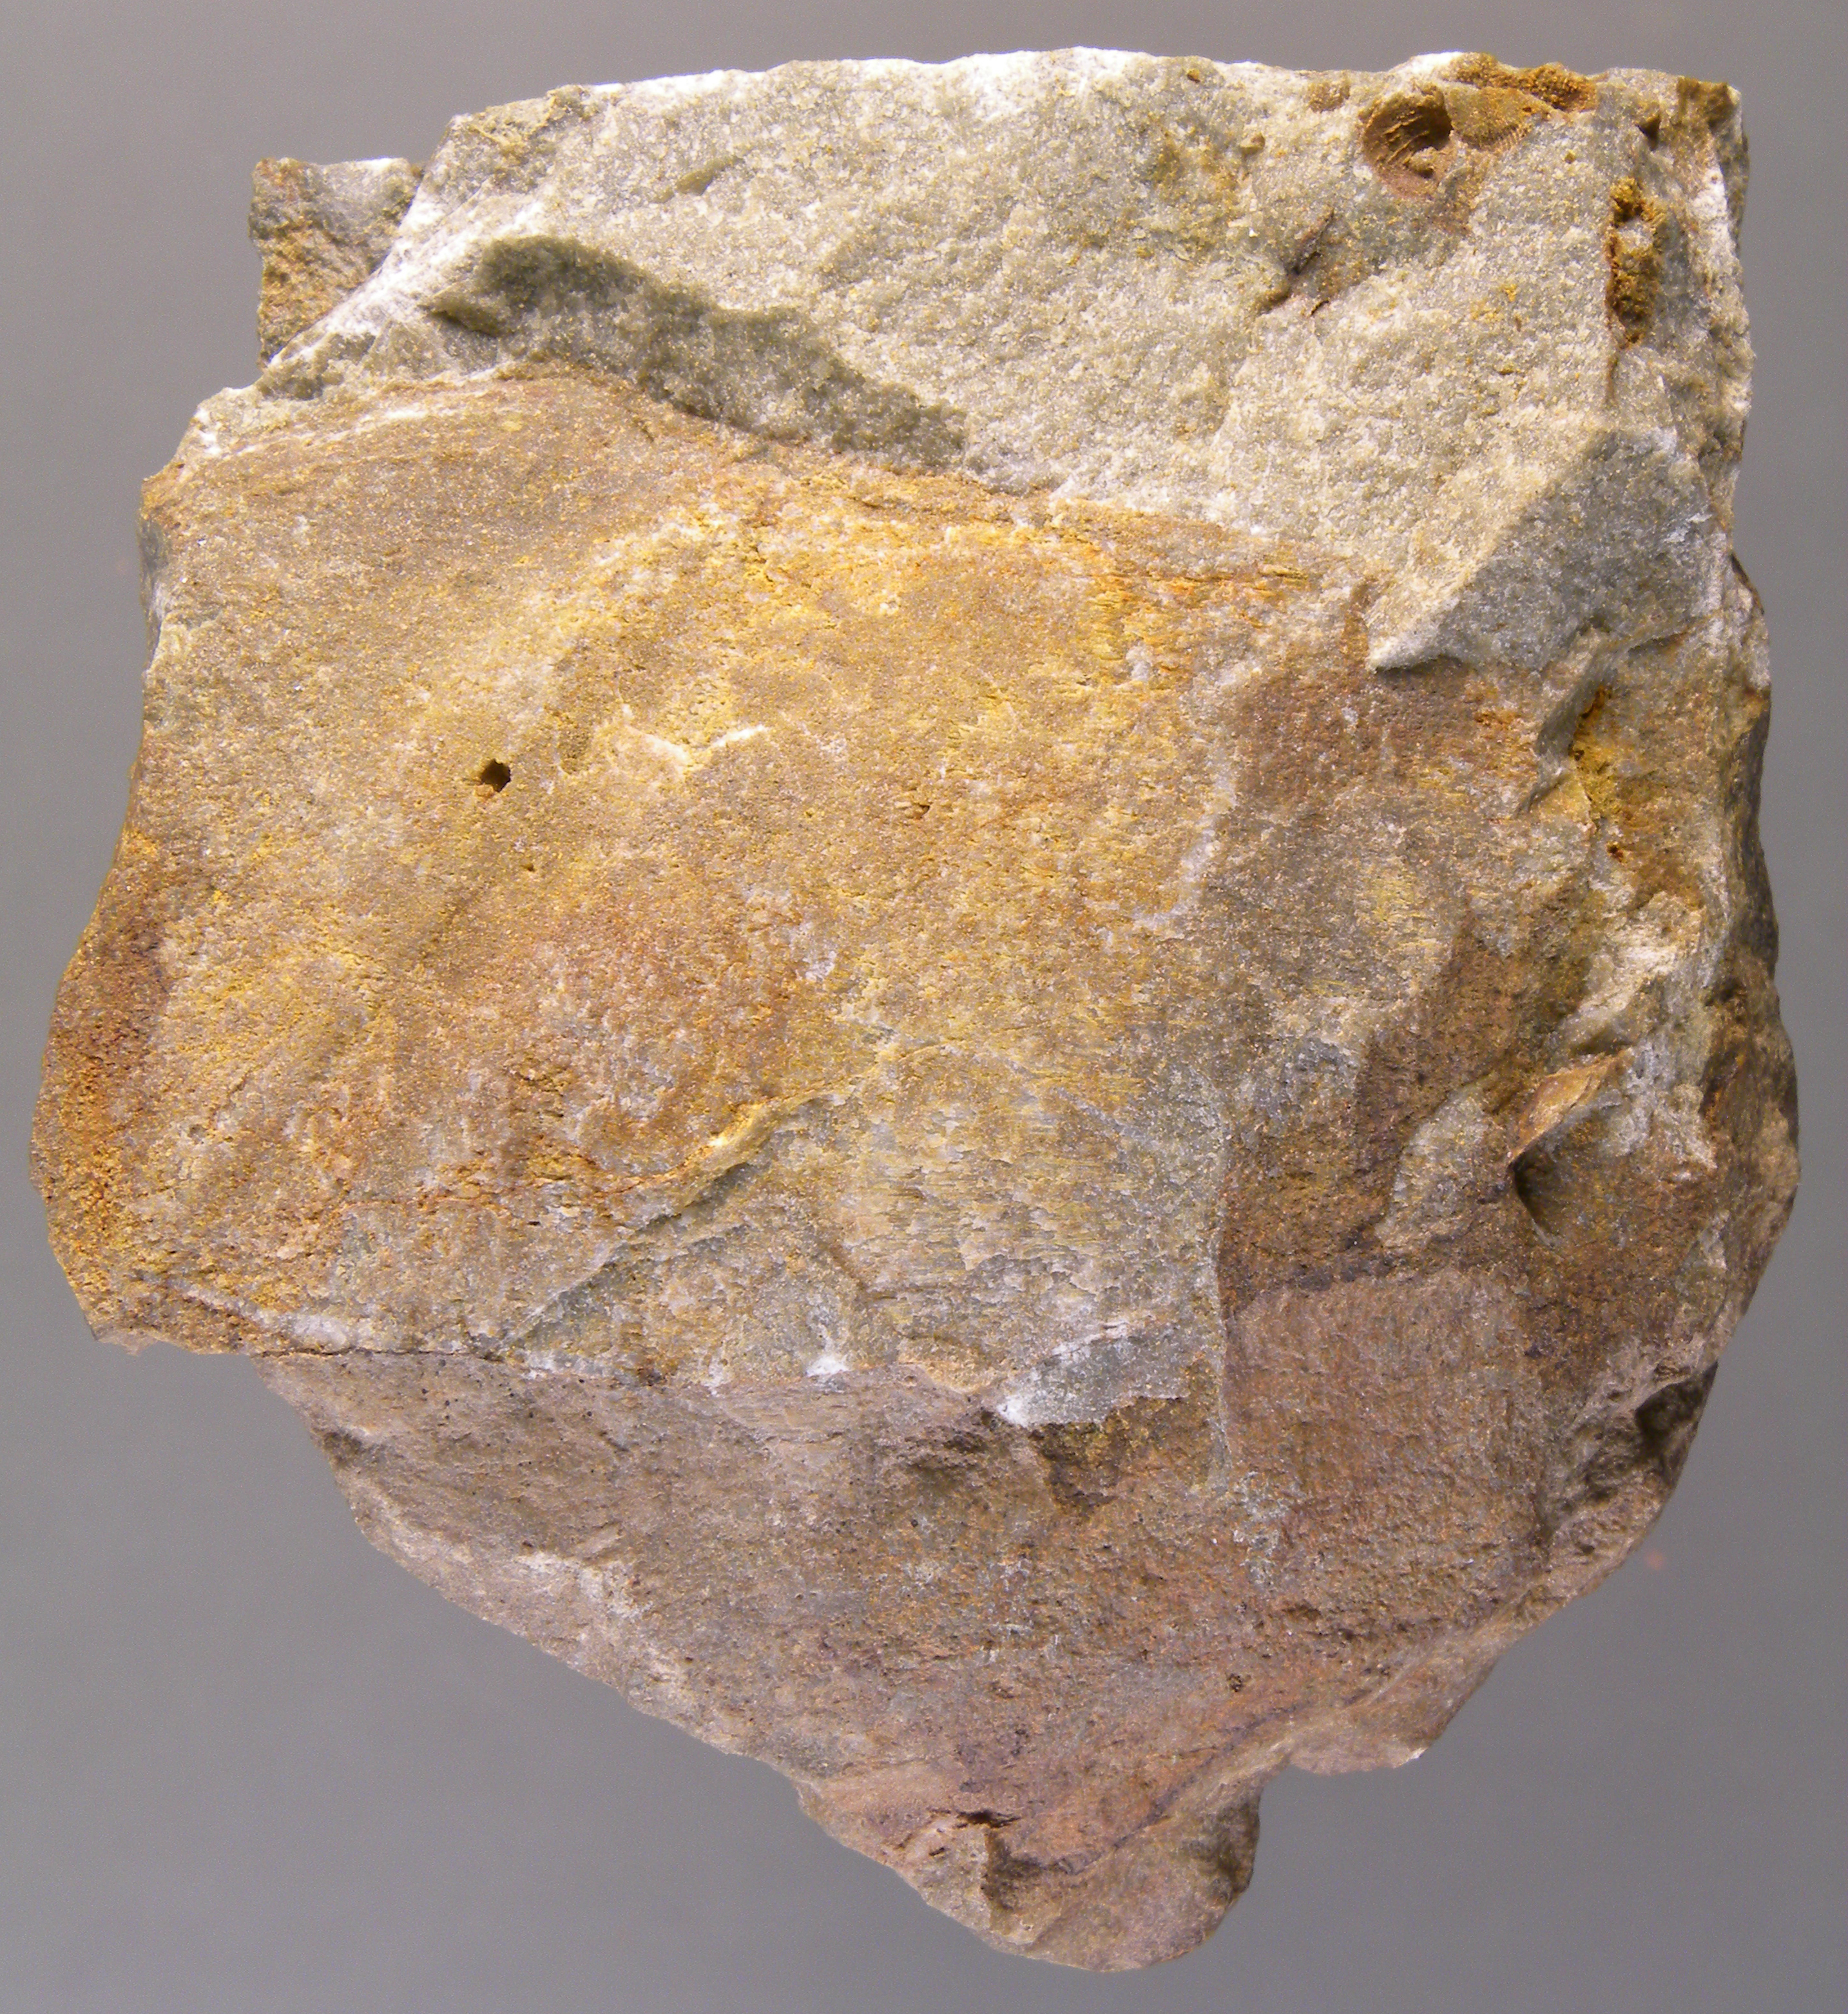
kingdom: Animalia
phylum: Mollusca
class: Bivalvia
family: Grammysiidae
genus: Grammysia
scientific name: Grammysia
